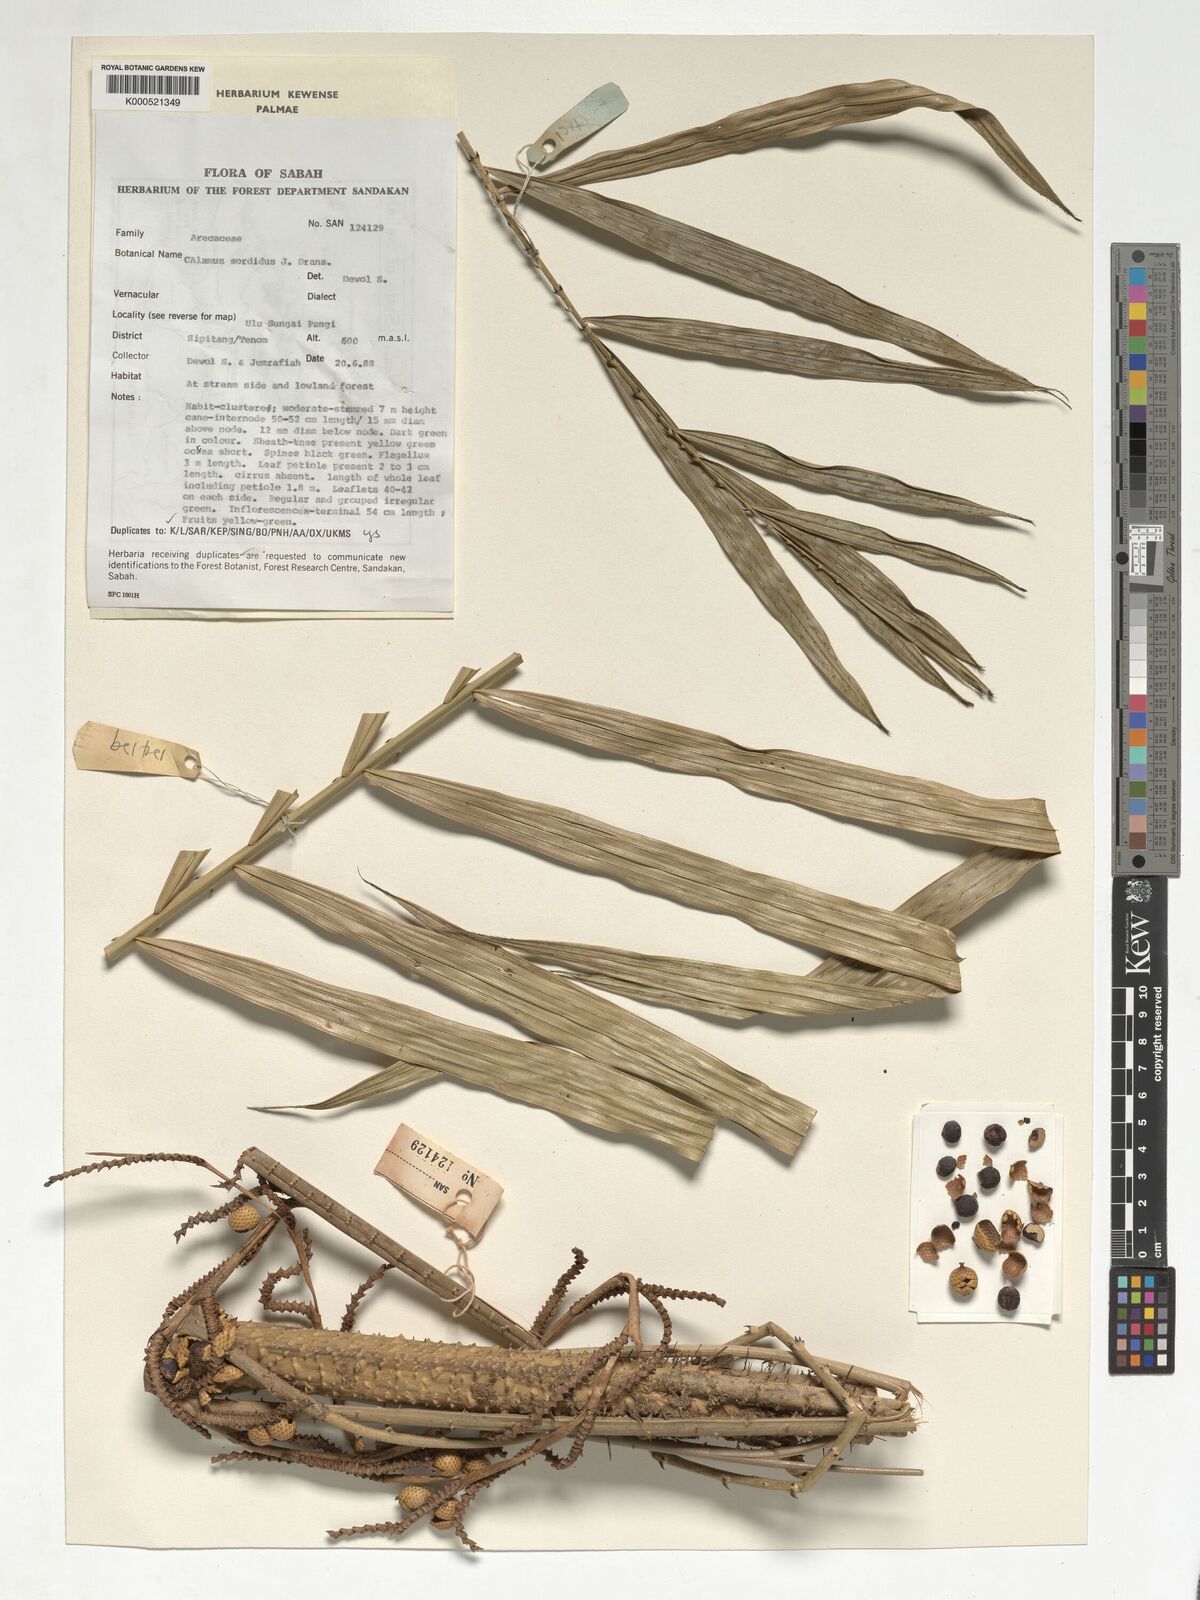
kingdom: Plantae
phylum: Tracheophyta
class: Liliopsida
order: Arecales
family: Arecaceae
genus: Calamus
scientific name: Calamus sordidus
